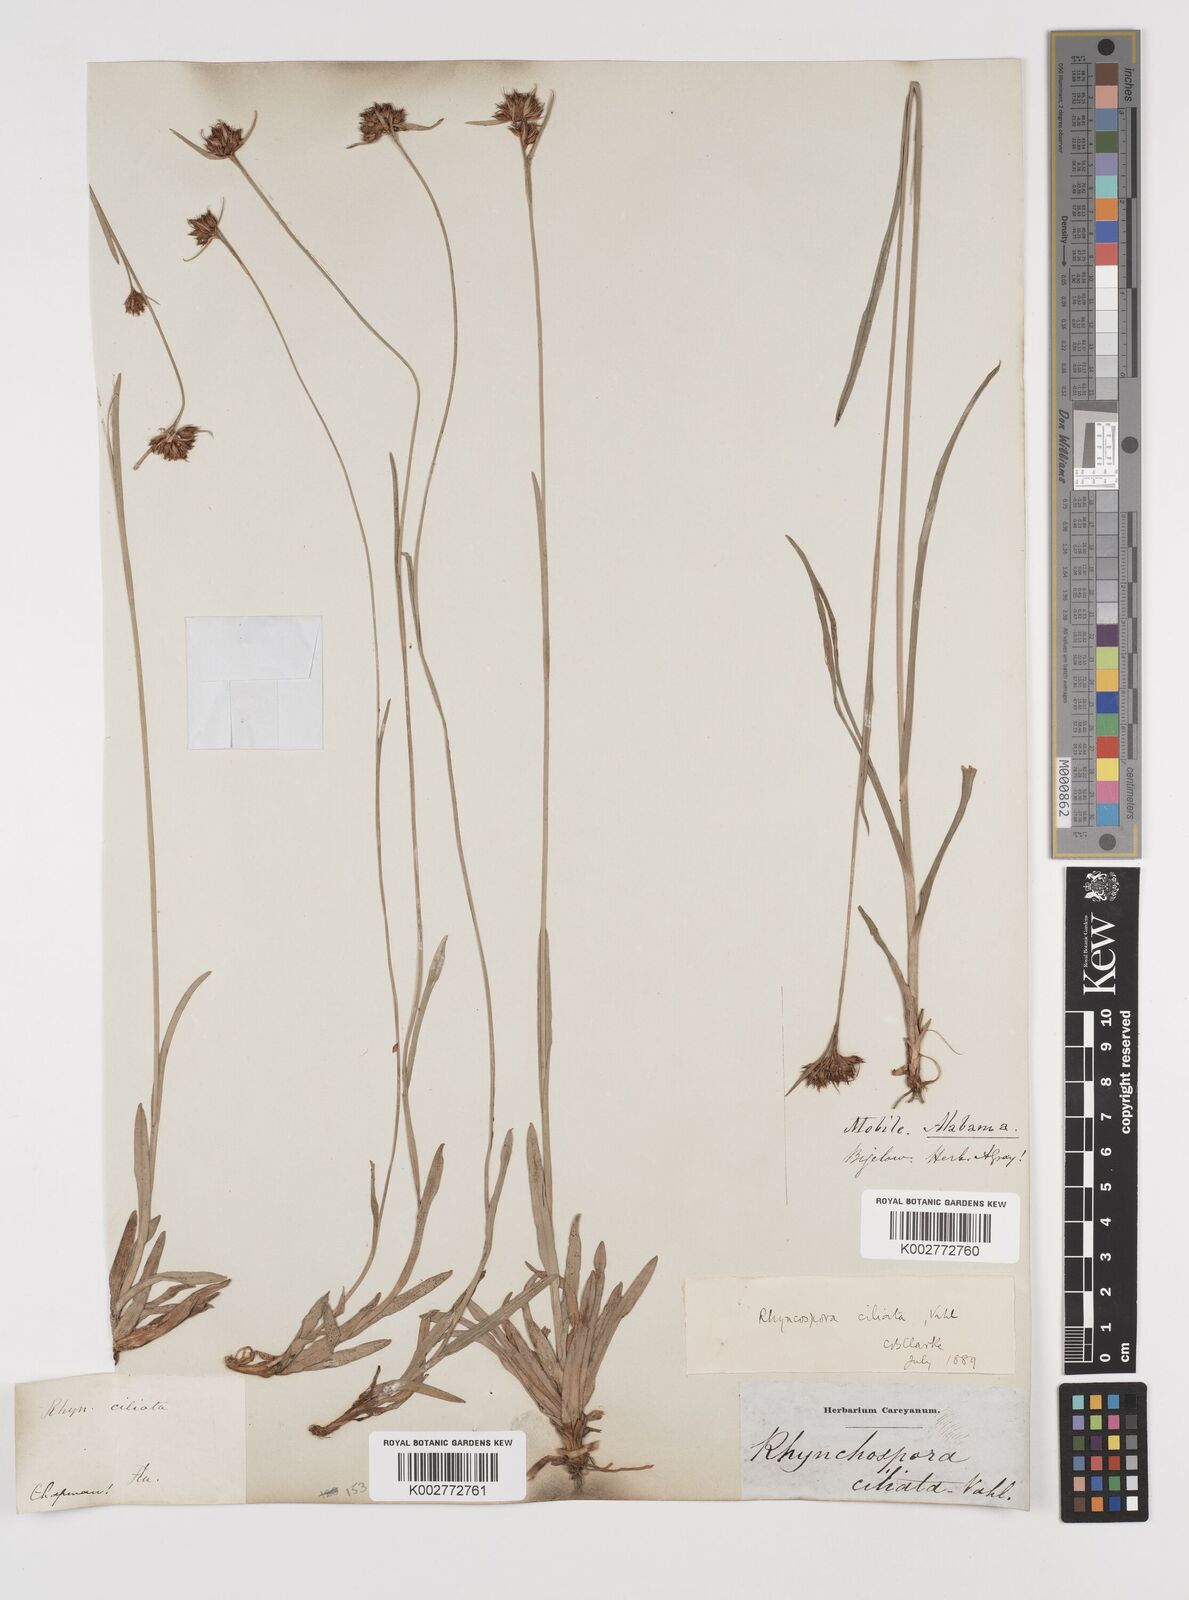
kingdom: Plantae
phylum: Tracheophyta
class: Liliopsida
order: Poales
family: Cyperaceae
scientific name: Cyperaceae
